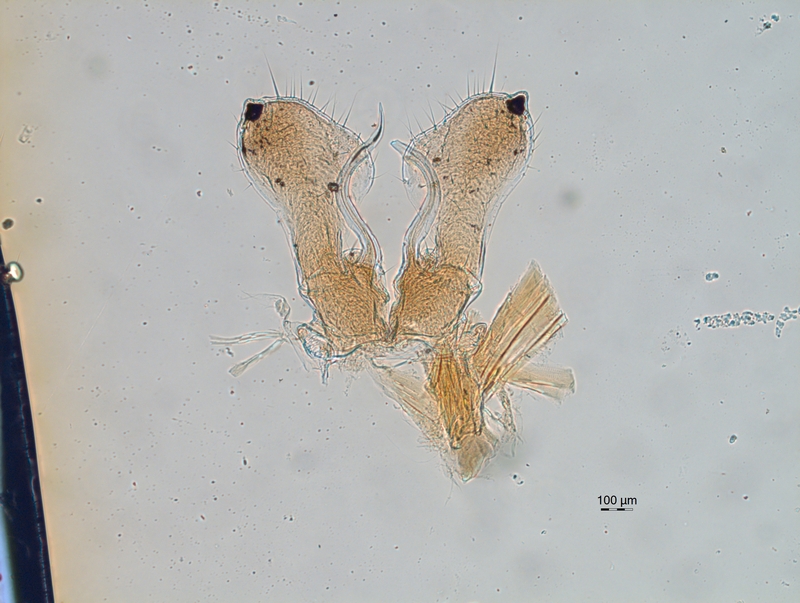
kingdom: Animalia
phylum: Arthropoda
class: Diplopoda
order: Chordeumatida
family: Chordeumatidae
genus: Orthochordeumella
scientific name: Orthochordeumella fulva
